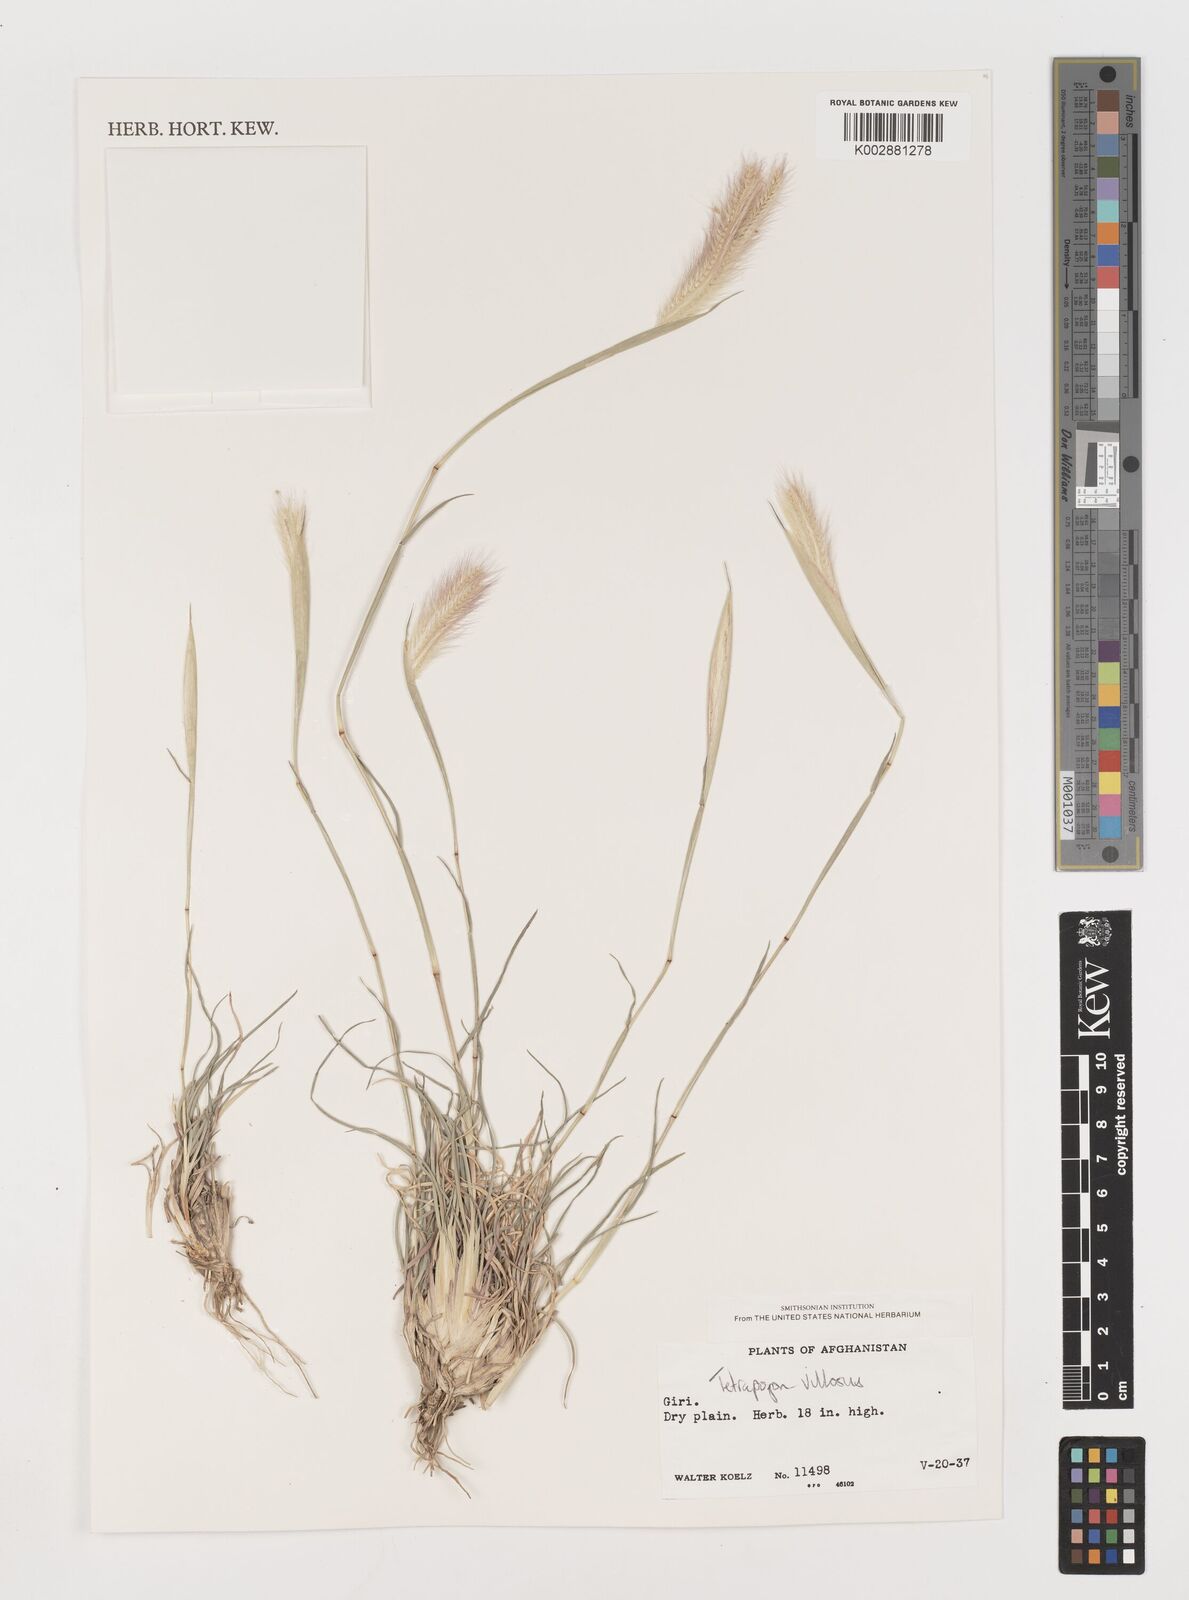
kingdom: Plantae
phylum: Tracheophyta
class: Liliopsida
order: Poales
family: Poaceae
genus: Tetrapogon
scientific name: Tetrapogon villosus
